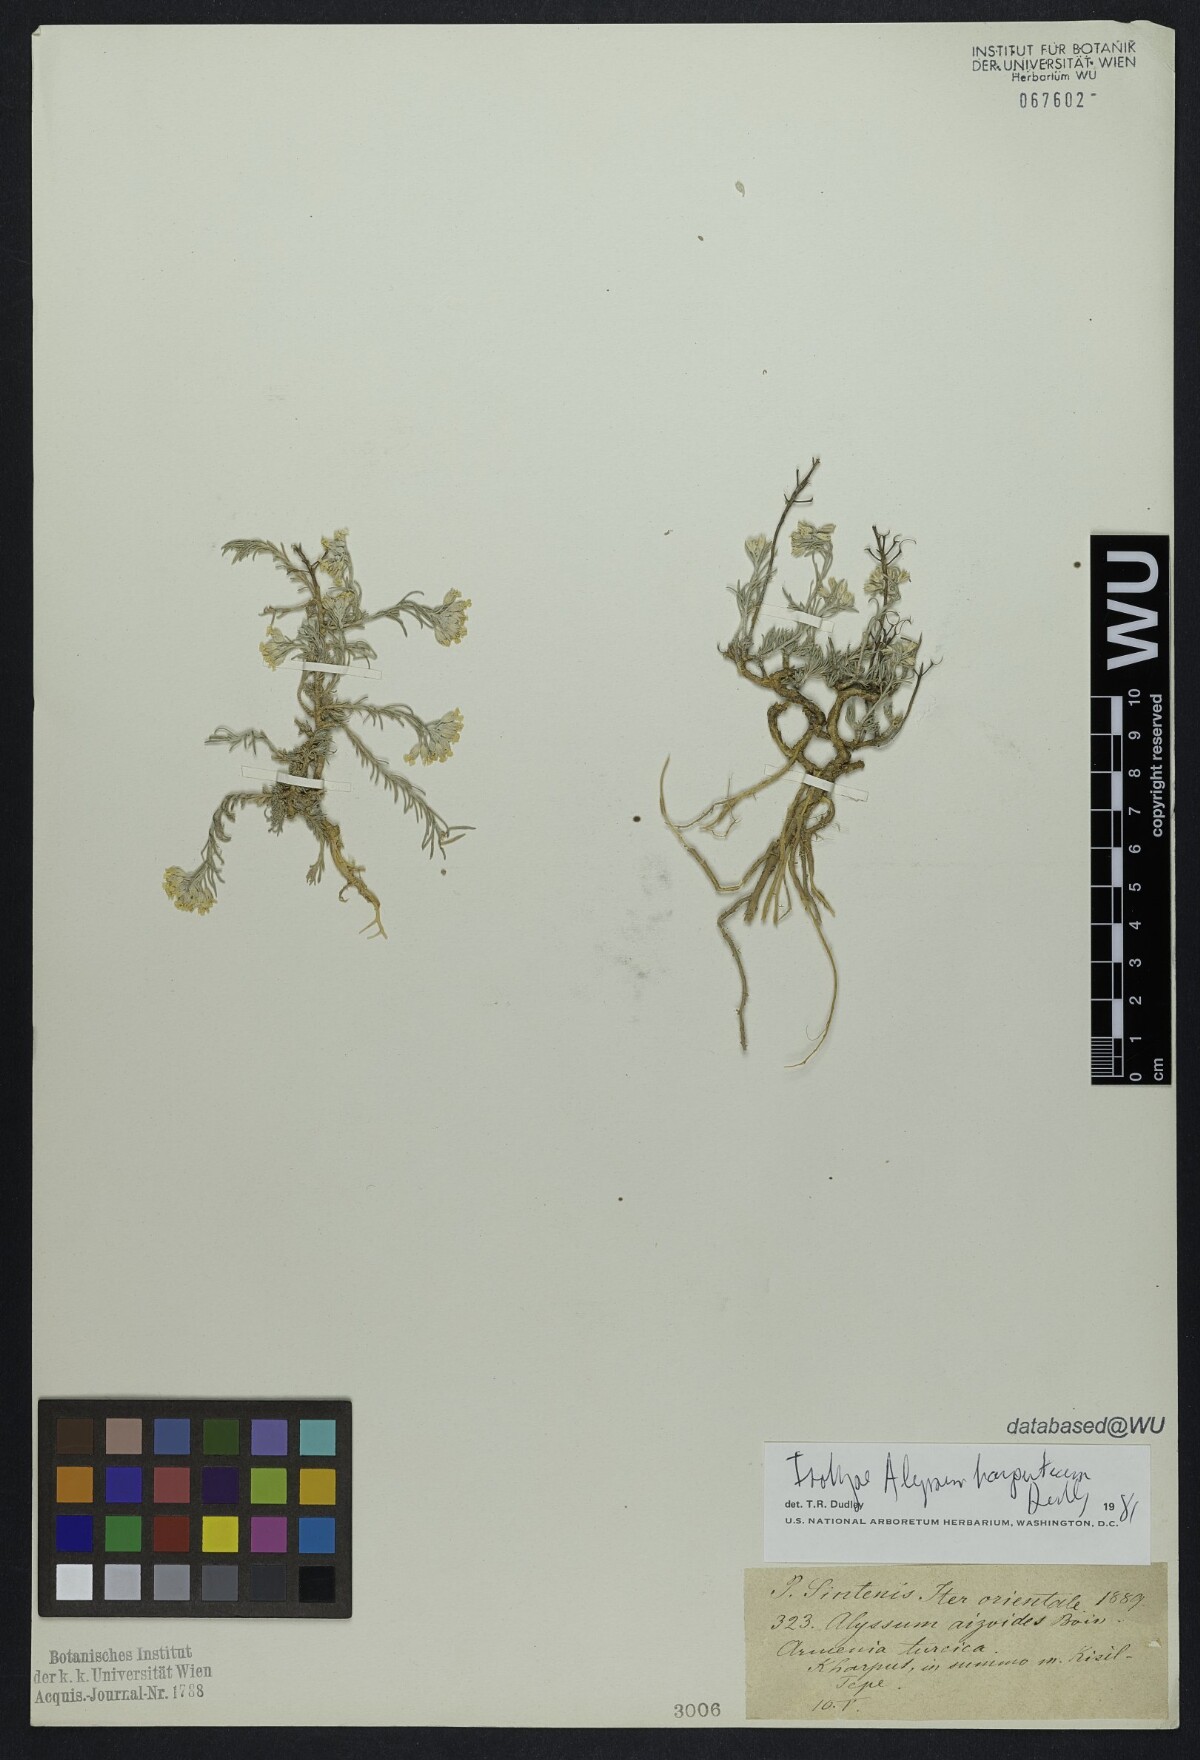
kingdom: Plantae
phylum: Tracheophyta
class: Magnoliopsida
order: Brassicales
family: Brassicaceae
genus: Alyssum
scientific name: Alyssum harputicum
